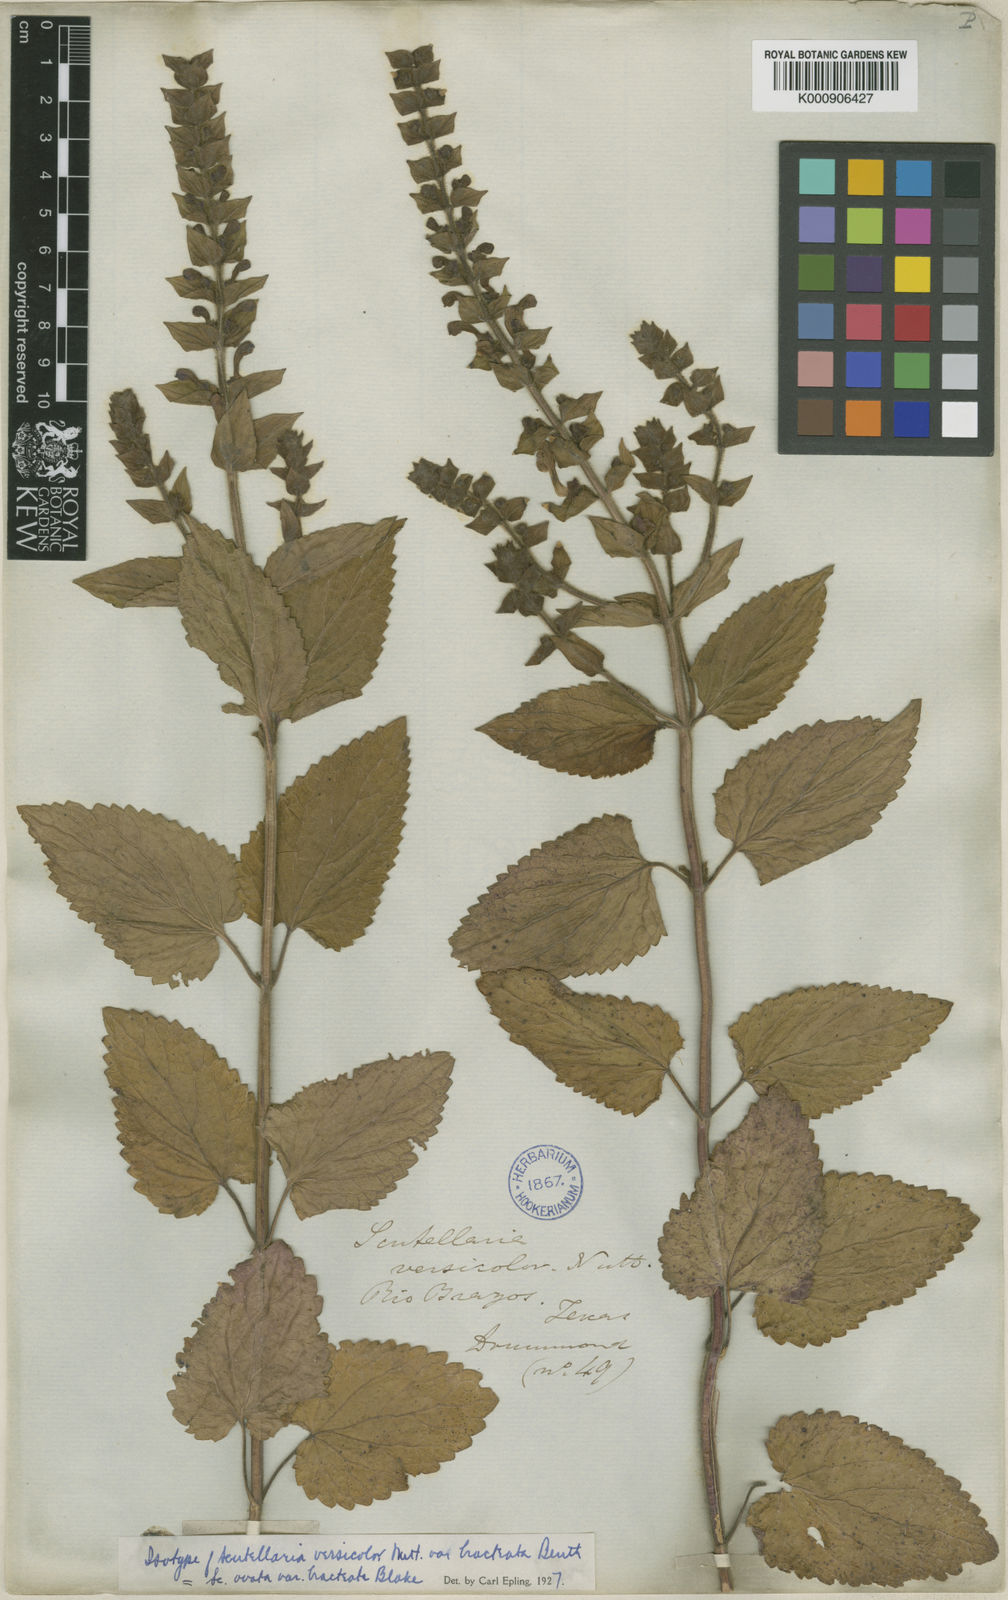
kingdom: Plantae
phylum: Tracheophyta
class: Magnoliopsida
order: Lamiales
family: Lamiaceae
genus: Scutellaria
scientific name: Scutellaria ovata
